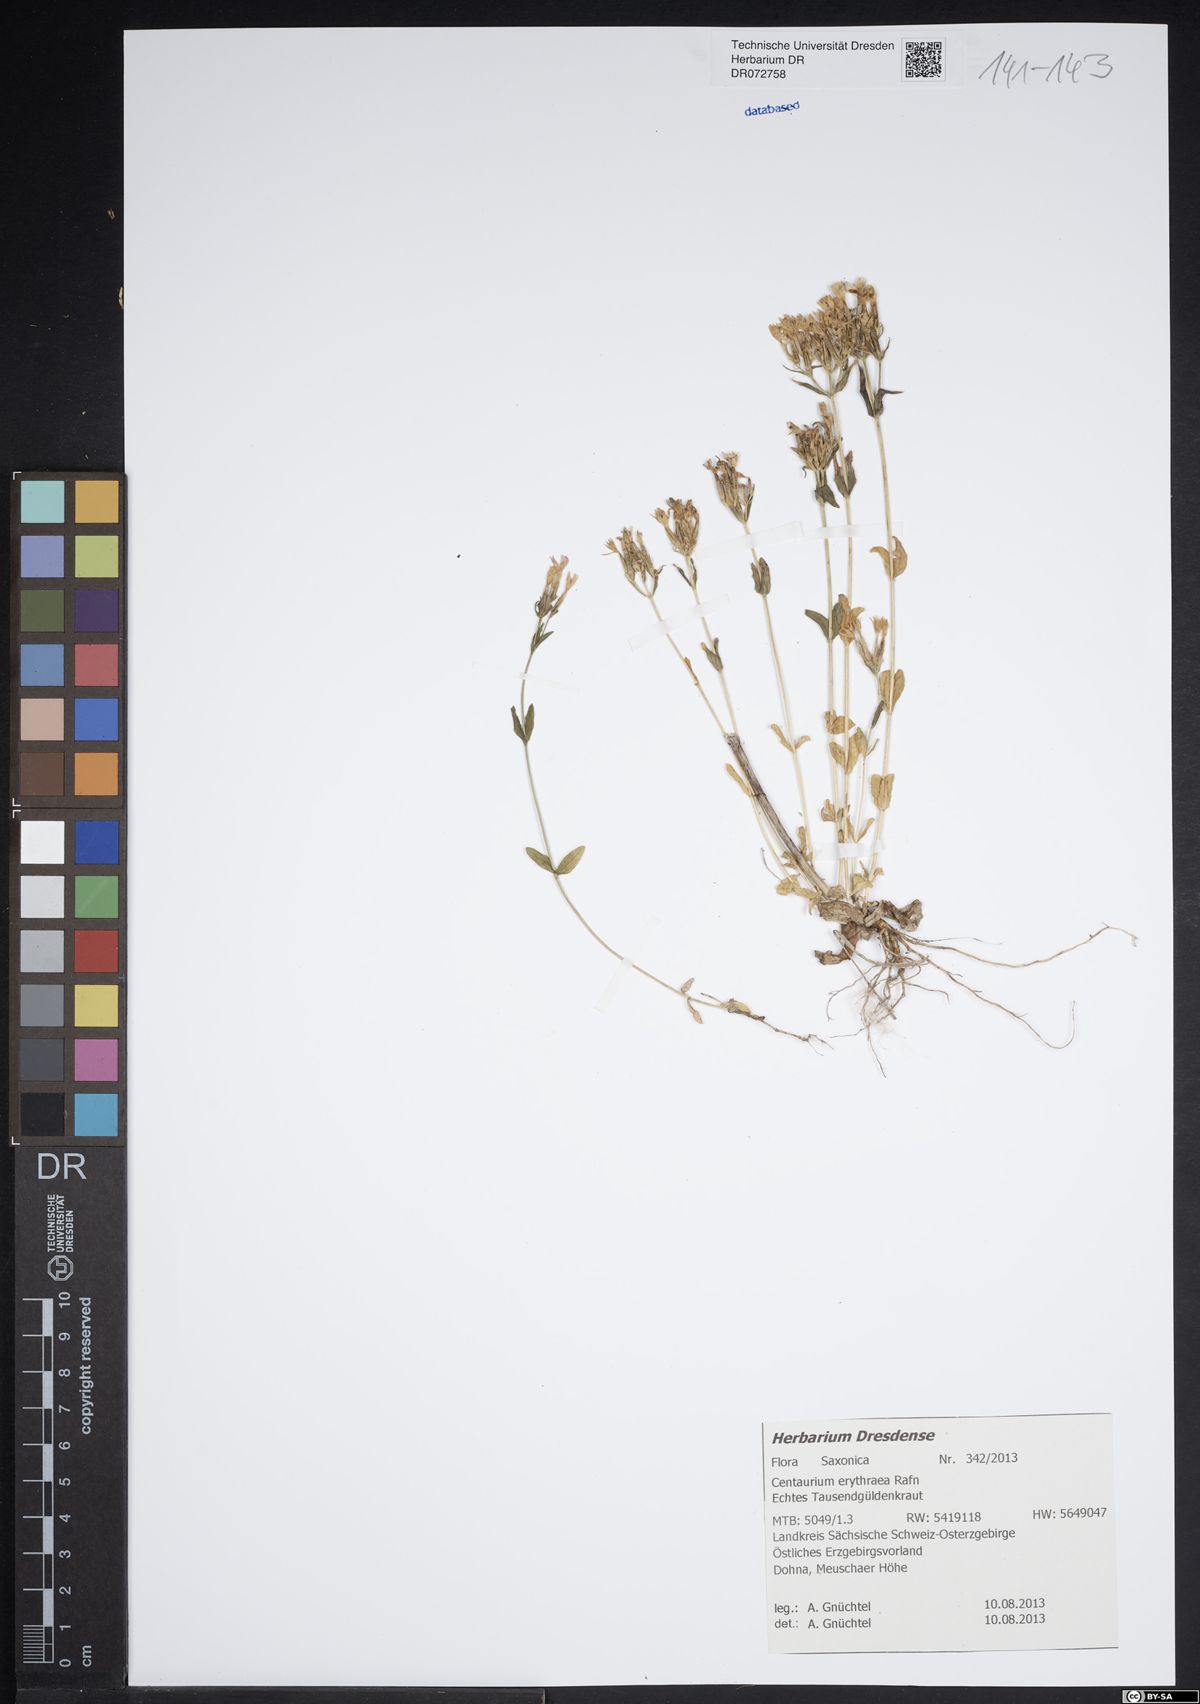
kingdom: Plantae
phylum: Tracheophyta
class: Magnoliopsida
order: Gentianales
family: Gentianaceae
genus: Centaurium
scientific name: Centaurium erythraea
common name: Common centaury
